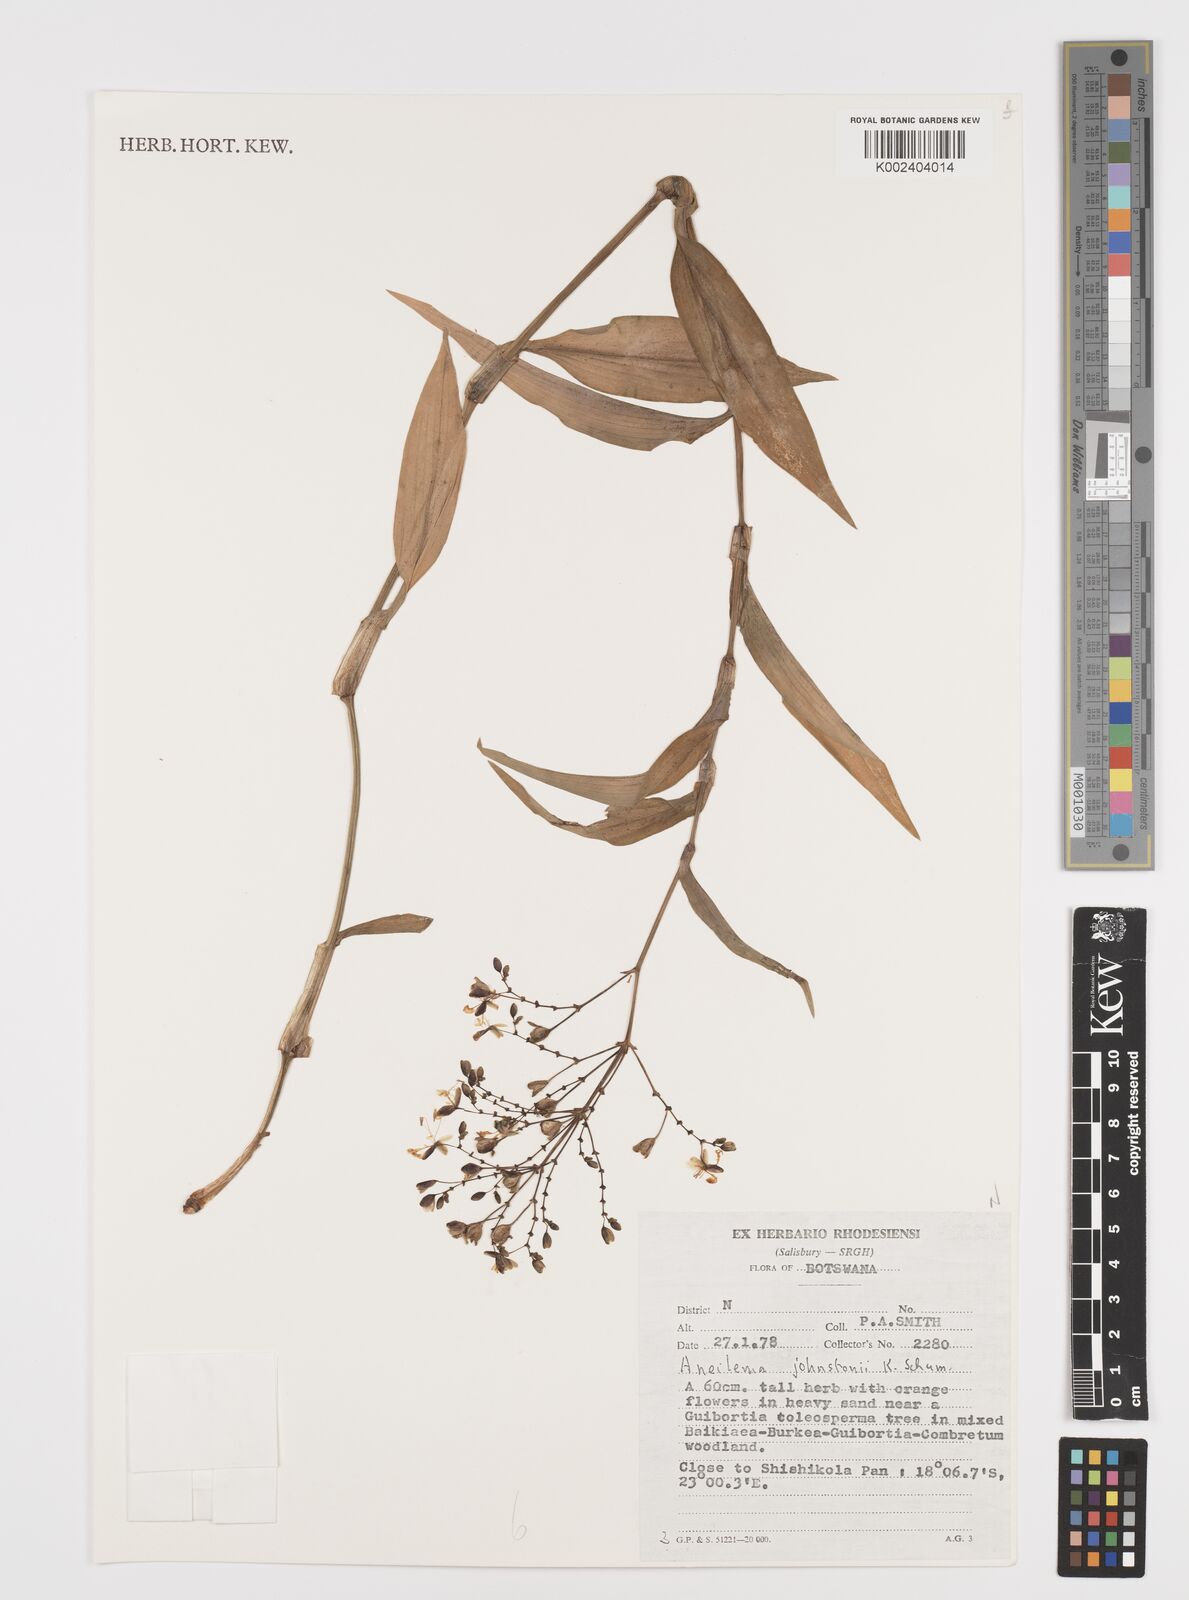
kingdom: Plantae
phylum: Tracheophyta
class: Liliopsida
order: Commelinales
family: Commelinaceae
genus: Aneilema
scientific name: Aneilema johnstonii
